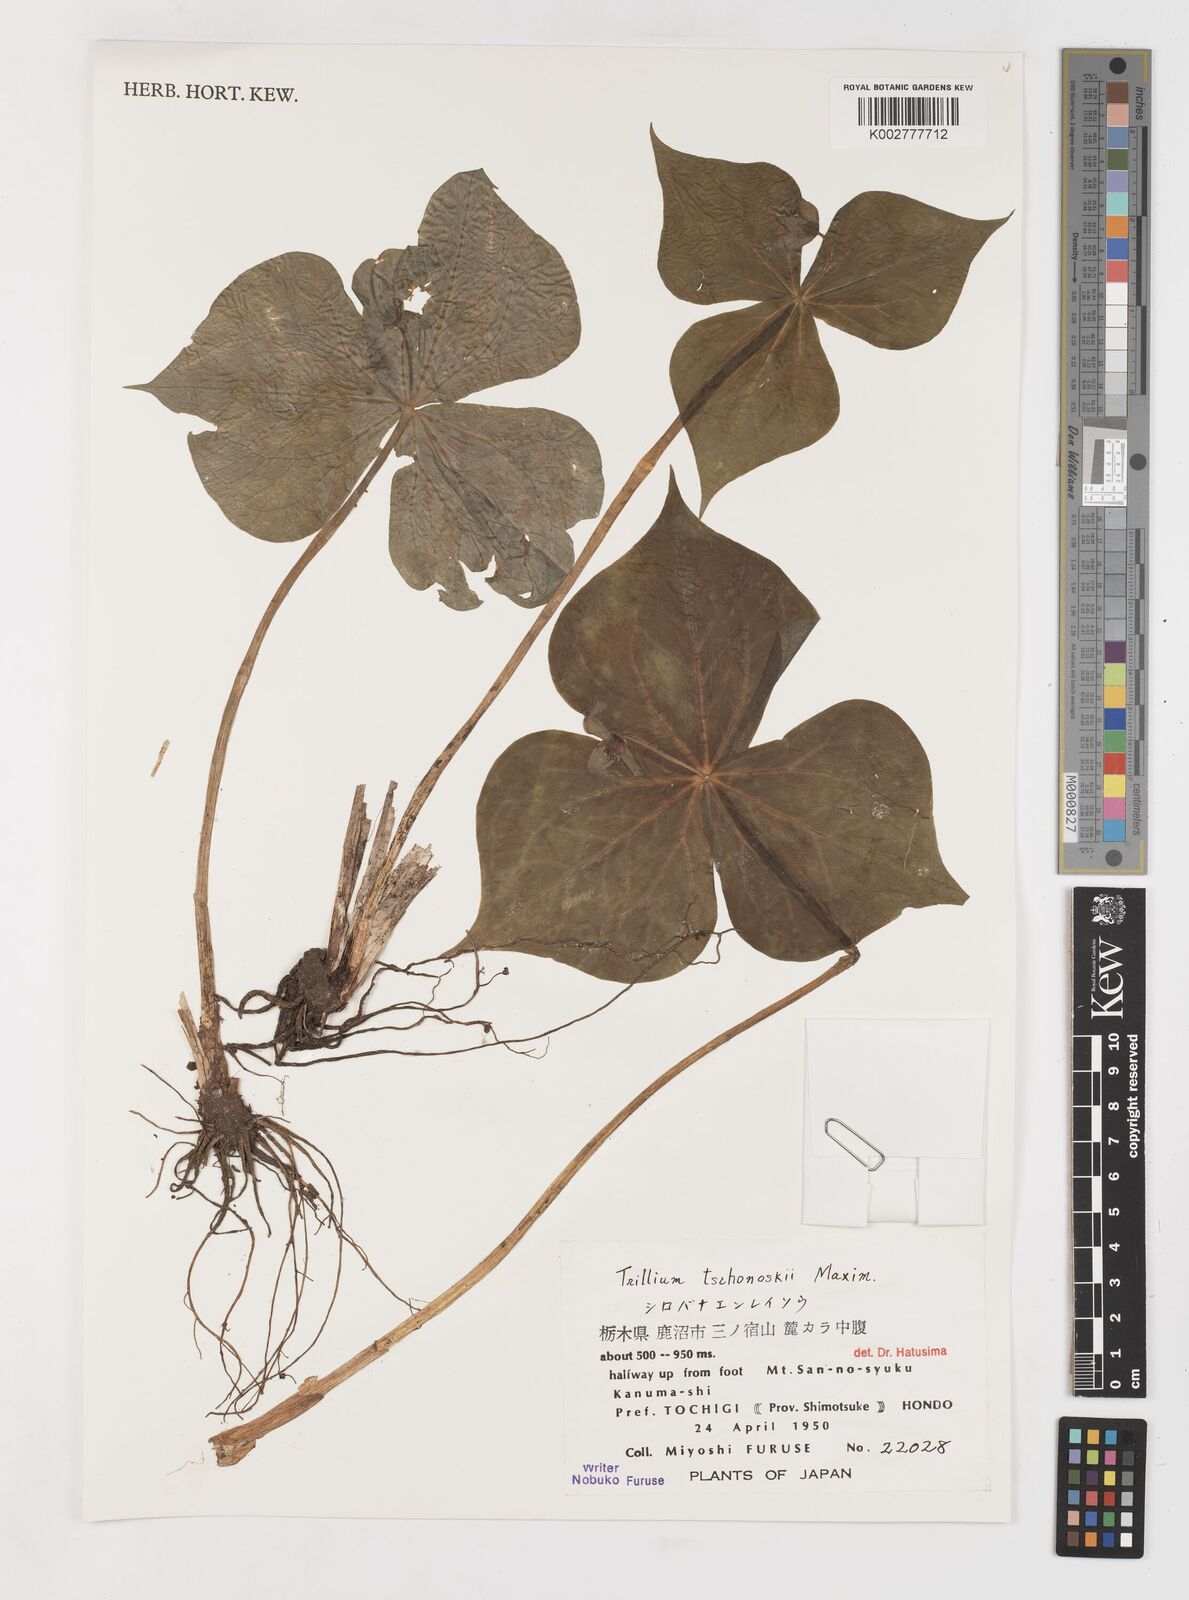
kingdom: Plantae
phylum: Tracheophyta
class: Liliopsida
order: Liliales
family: Melanthiaceae
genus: Trillium
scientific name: Trillium tschonoskii
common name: A pearl on head
